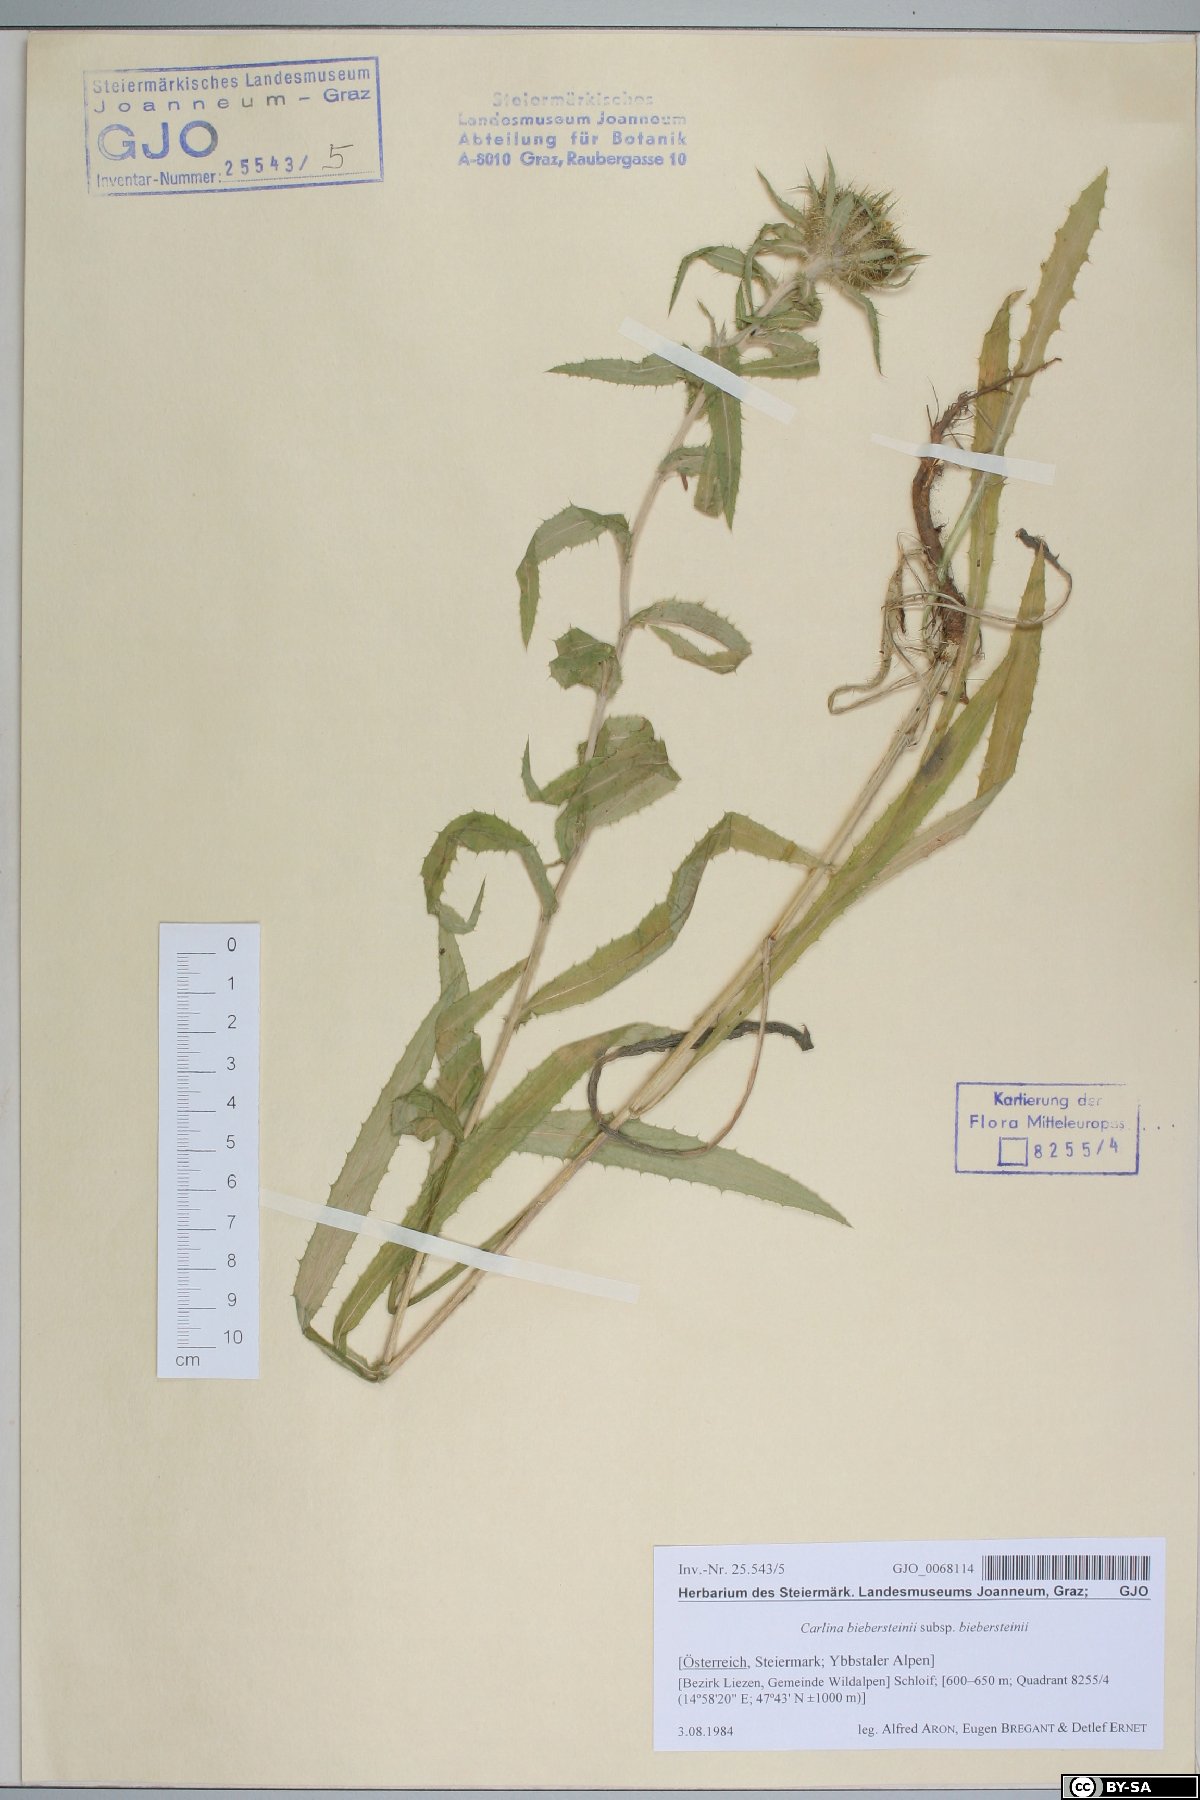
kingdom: Plantae
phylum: Tracheophyta
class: Magnoliopsida
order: Asterales
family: Asteraceae
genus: Carlina
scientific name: Carlina biebersteinii
